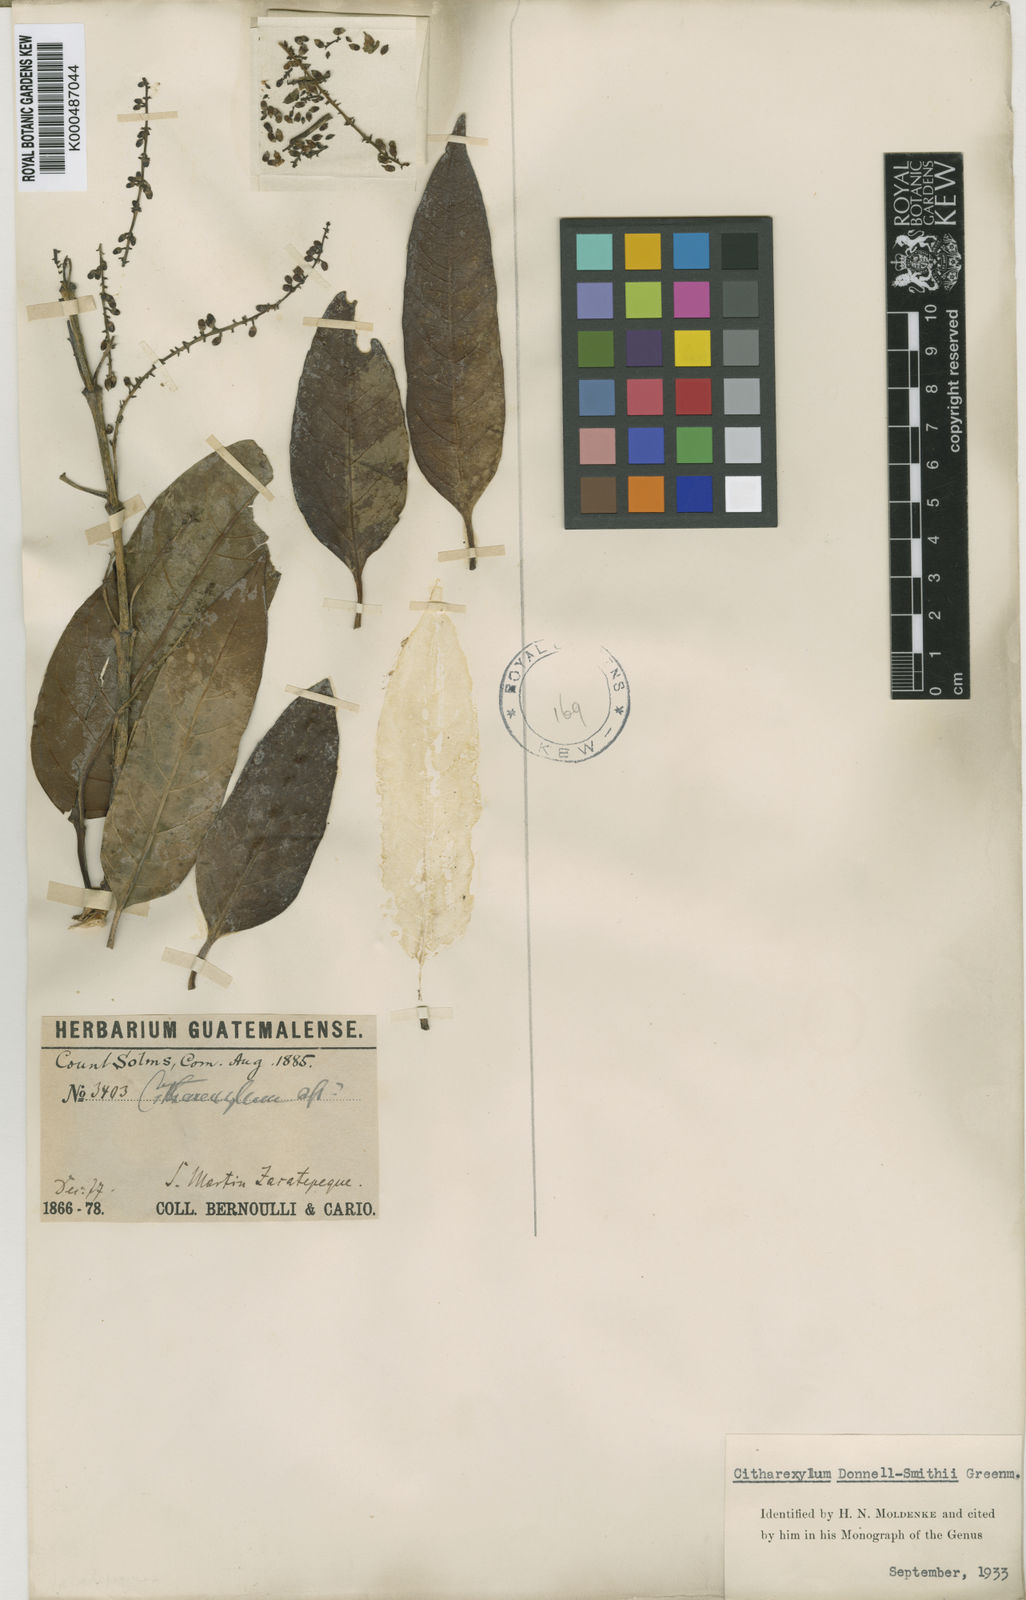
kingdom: Plantae
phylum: Tracheophyta
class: Magnoliopsida
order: Lamiales
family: Verbenaceae
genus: Citharexylum
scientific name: Citharexylum donnell-smithii
